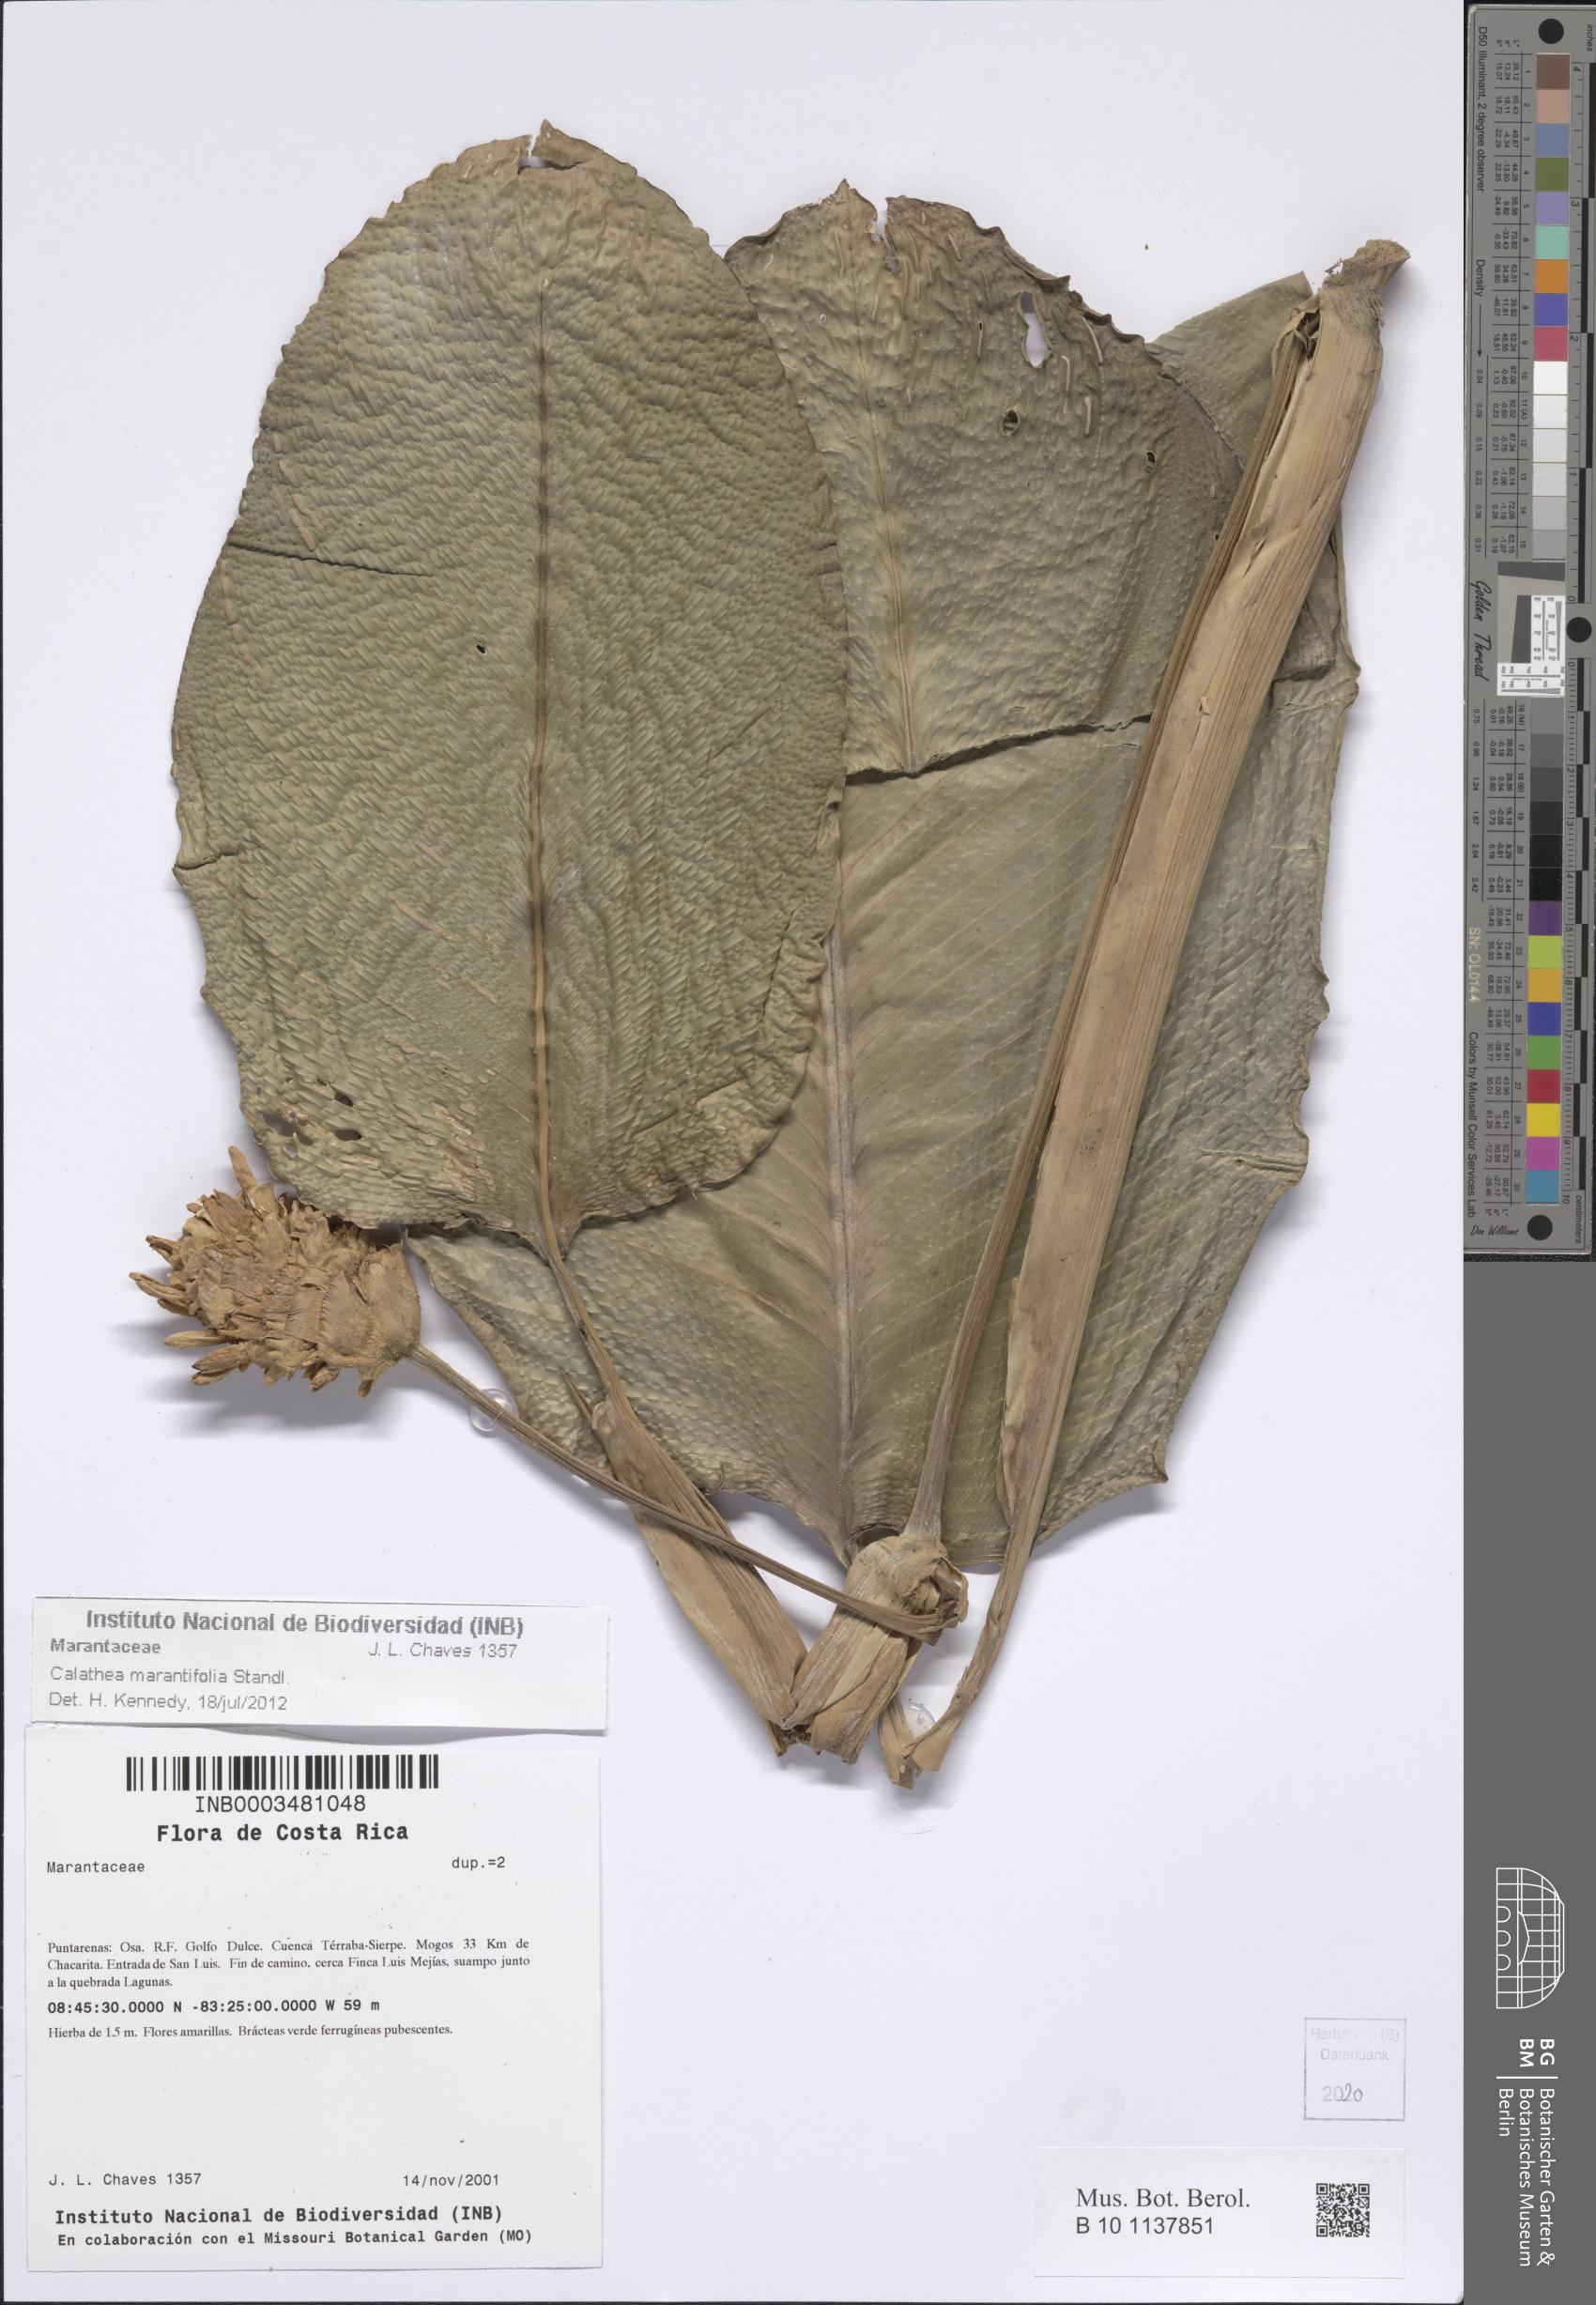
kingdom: Plantae
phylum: Tracheophyta
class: Liliopsida
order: Zingiberales
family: Marantaceae
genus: Goeppertia
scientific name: Goeppertia marantifolia
